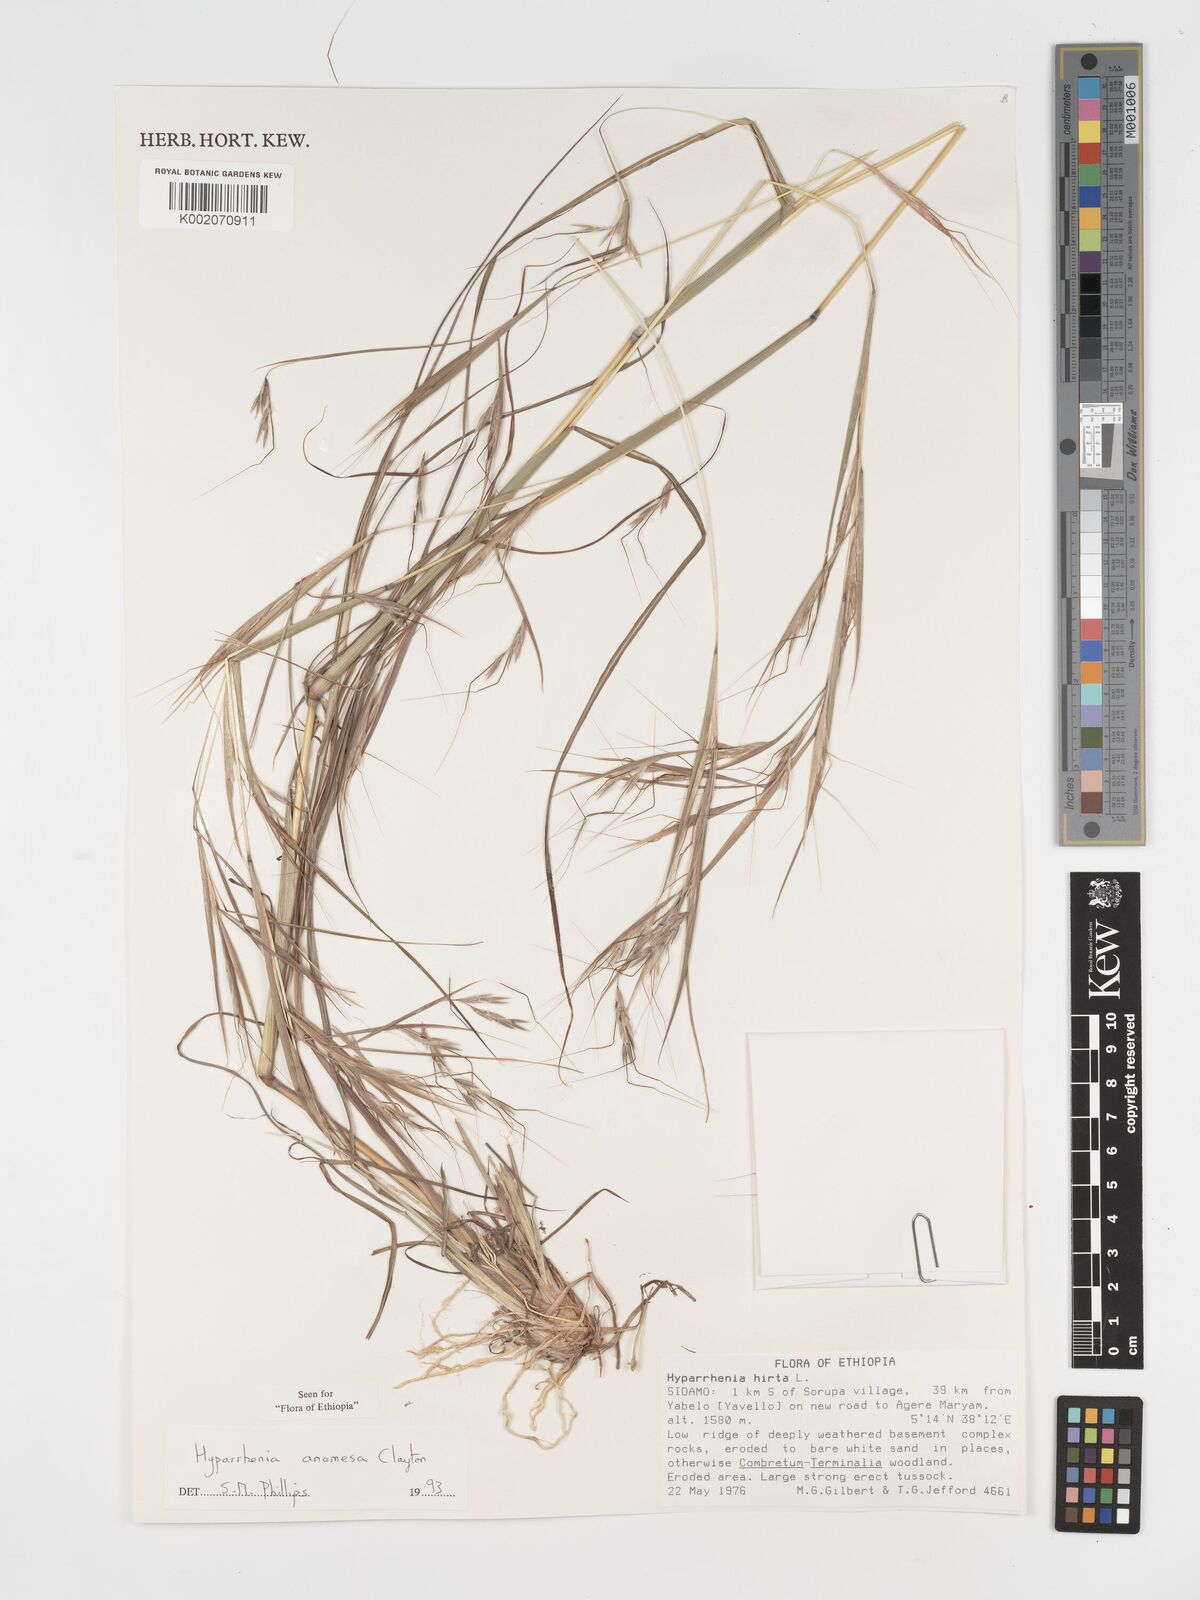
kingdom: Plantae
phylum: Tracheophyta
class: Liliopsida
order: Poales
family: Poaceae
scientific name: Poaceae
